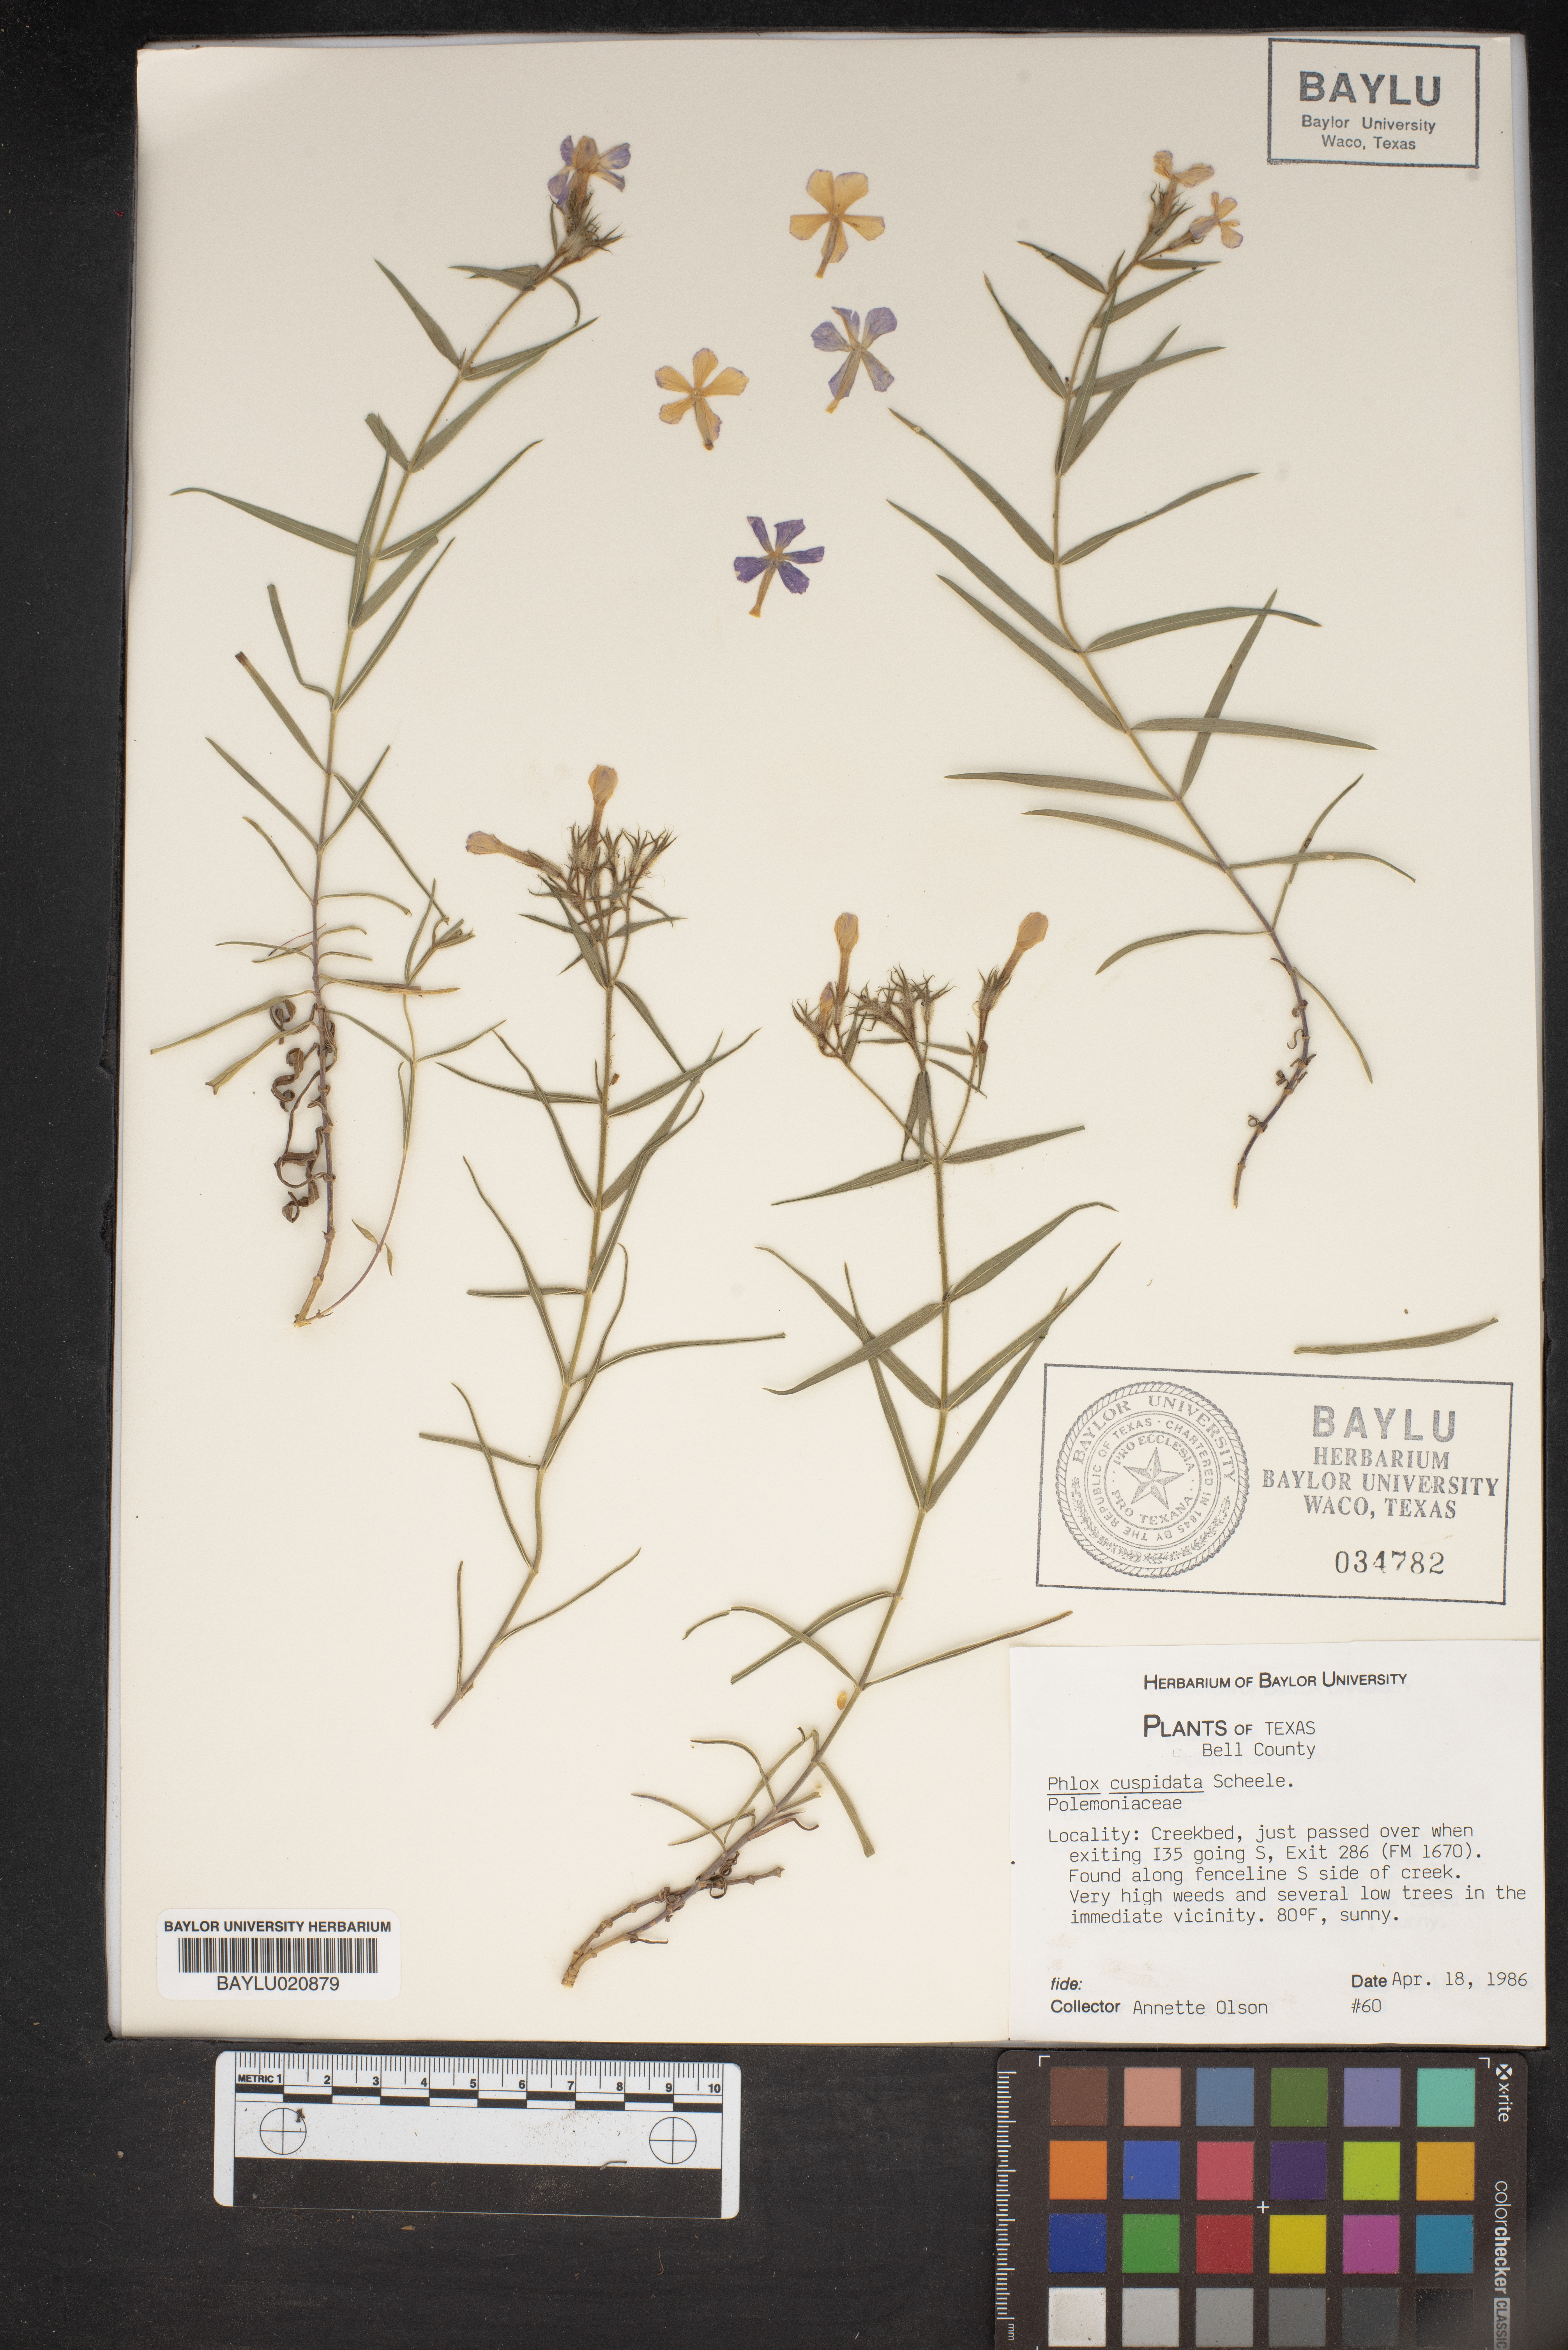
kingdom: Plantae
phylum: Tracheophyta
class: Magnoliopsida
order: Ericales
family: Polemoniaceae
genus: Phlox
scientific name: Phlox cuspidata
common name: Pointed phlox
